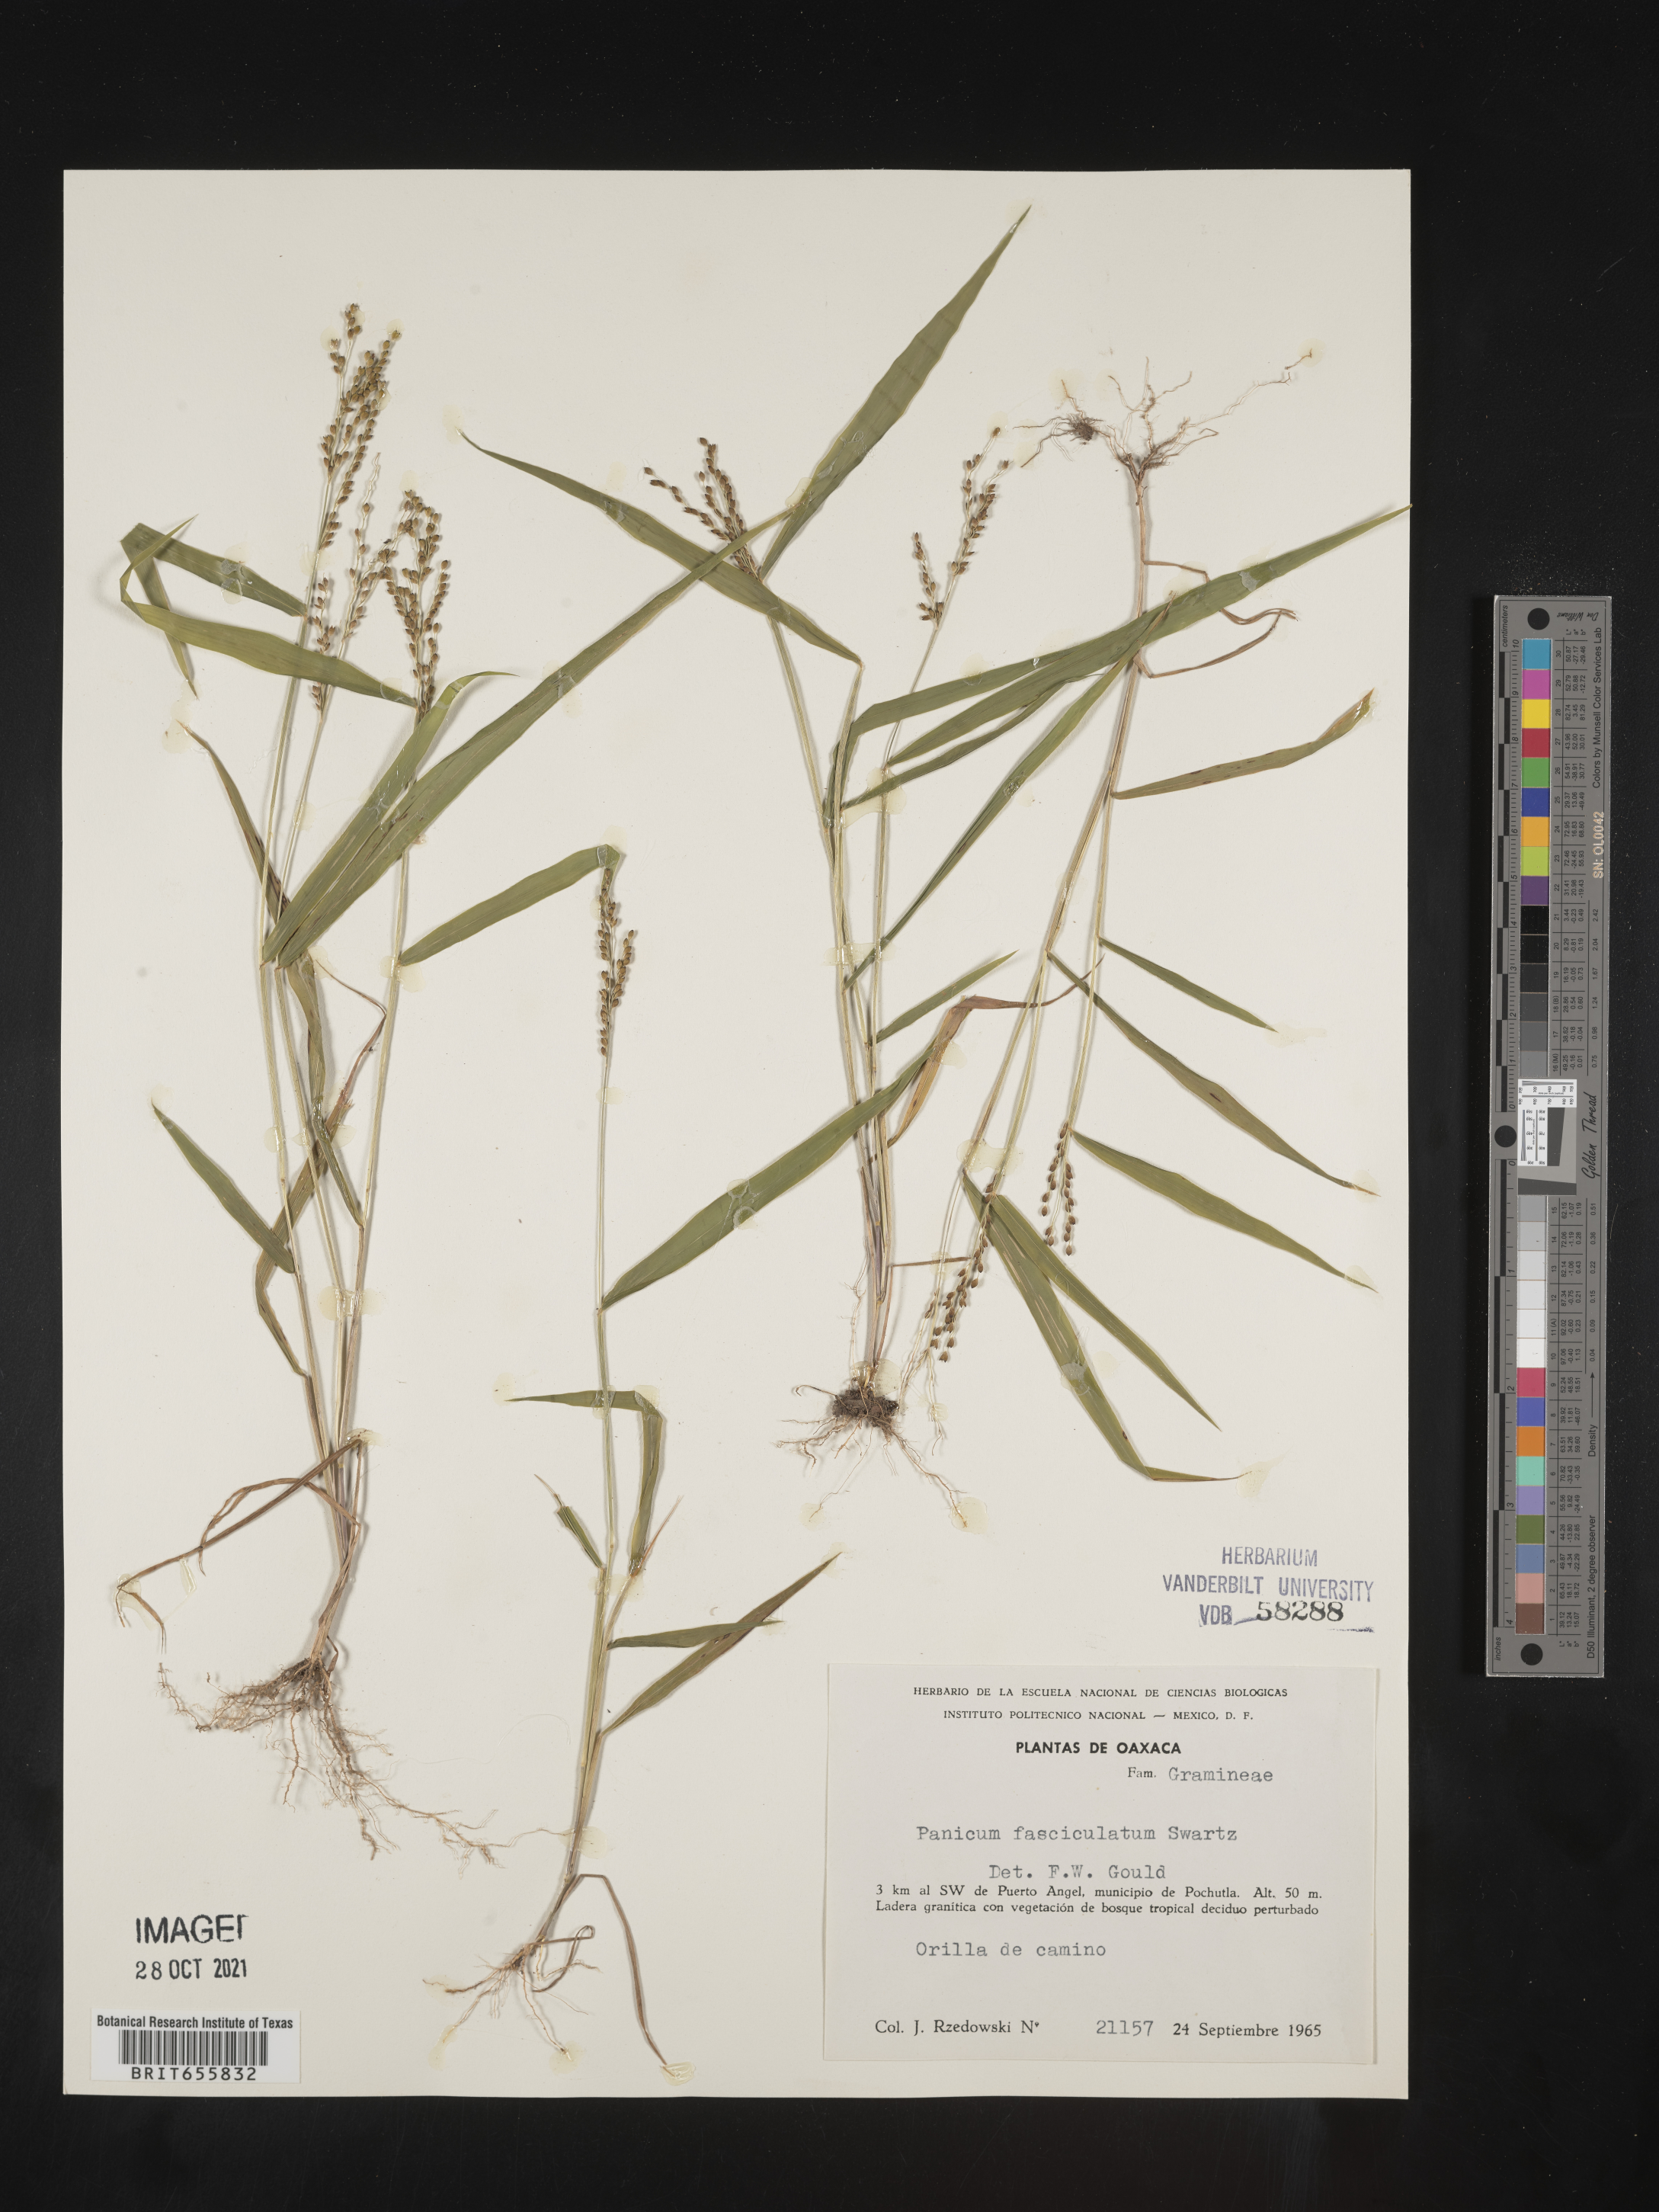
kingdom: Plantae
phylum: Tracheophyta
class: Liliopsida
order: Poales
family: Poaceae
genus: Panicum
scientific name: Panicum
